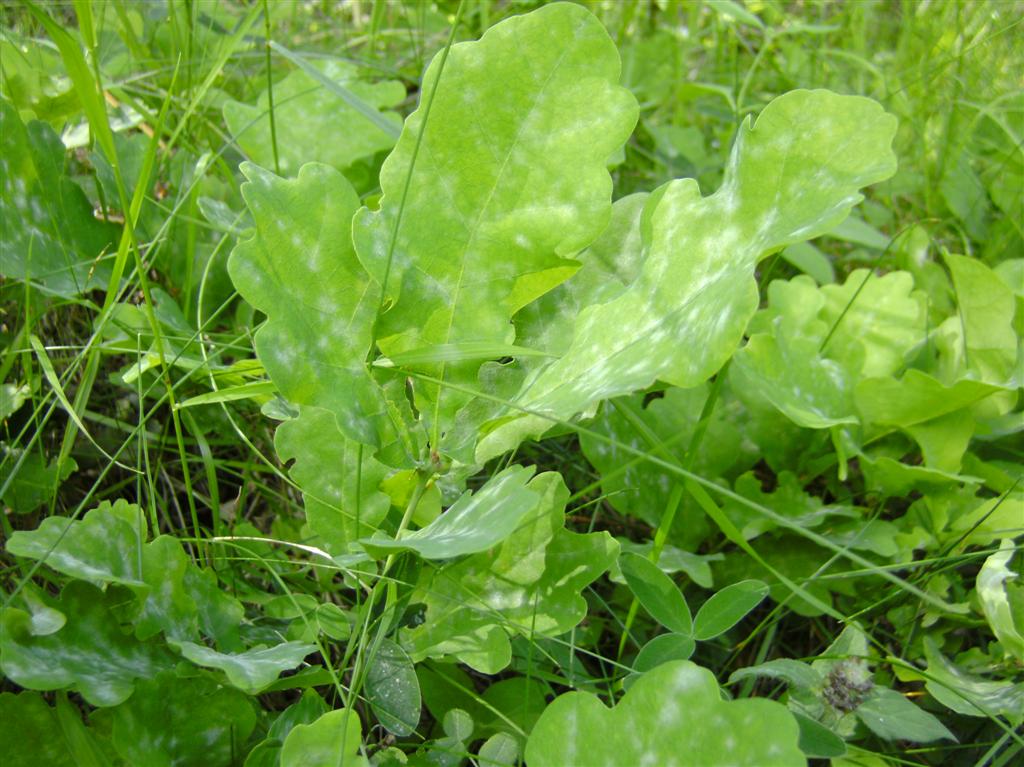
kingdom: Fungi
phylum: Ascomycota
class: Leotiomycetes
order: Helotiales
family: Erysiphaceae
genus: Erysiphe
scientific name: Erysiphe alphitoides
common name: ege-meldug
